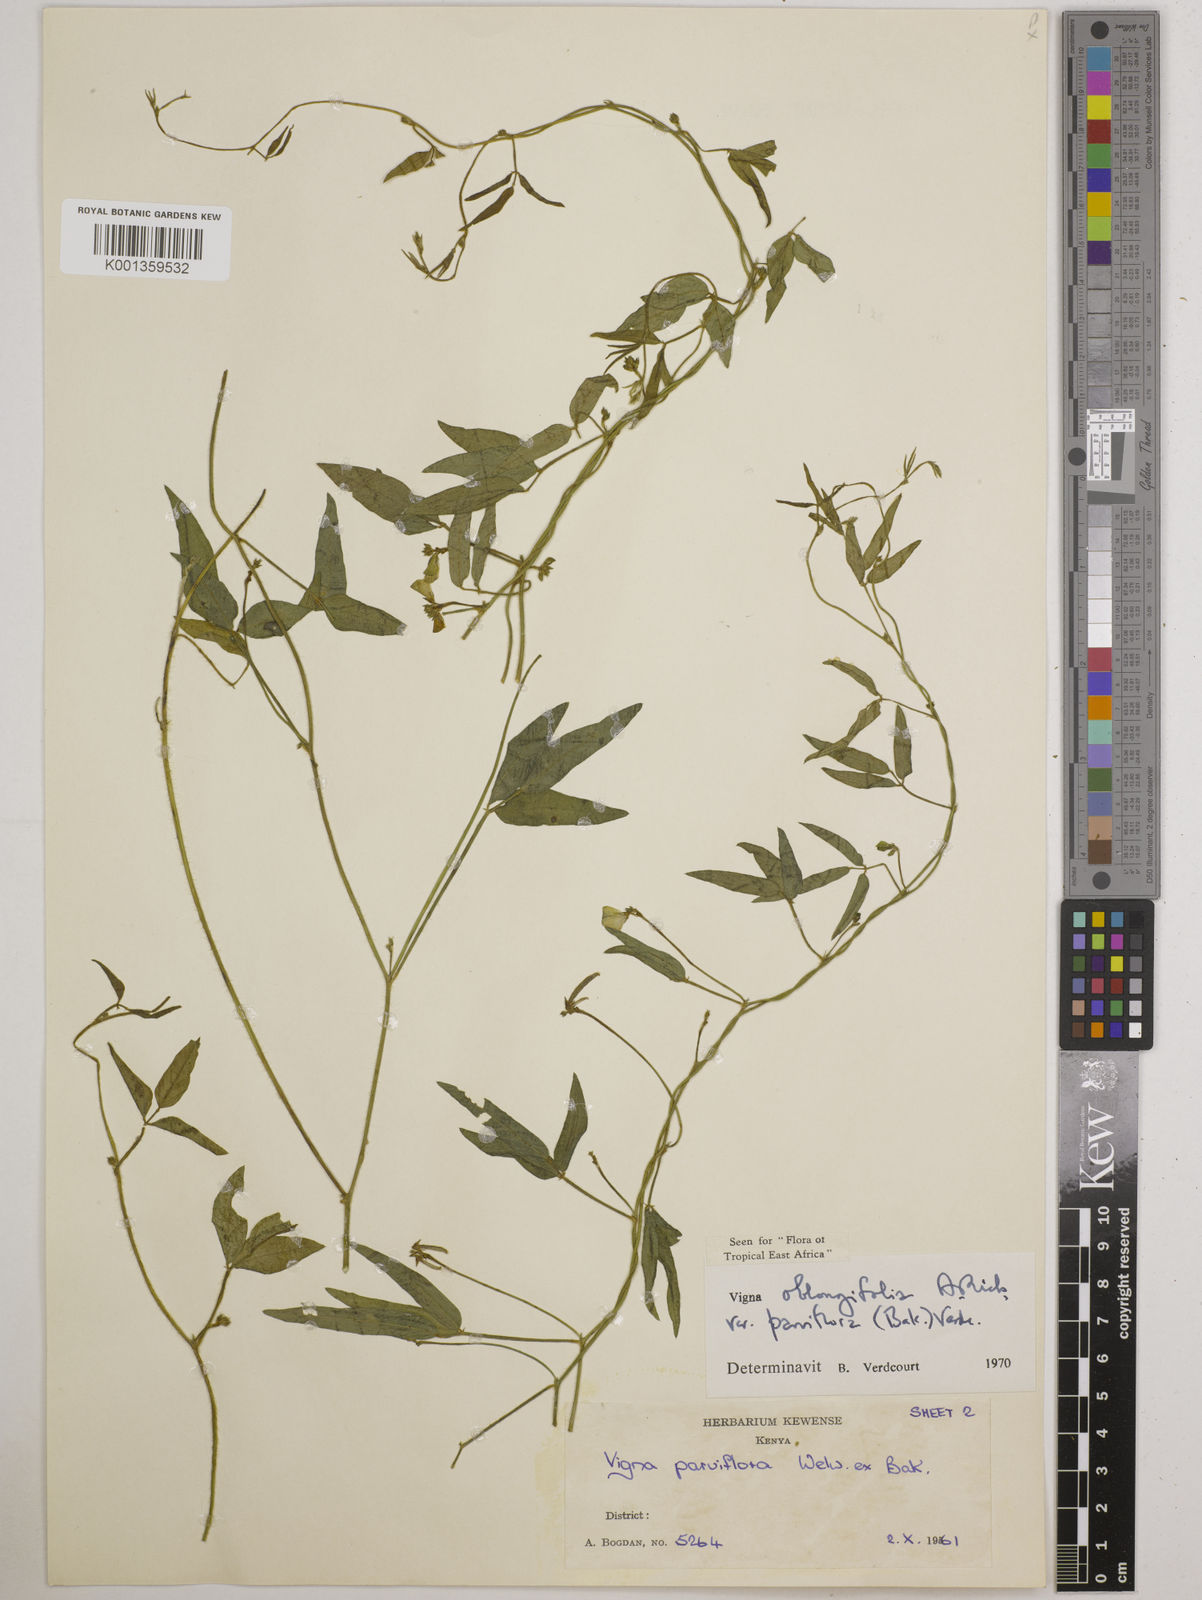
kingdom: Plantae
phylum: Tracheophyta
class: Magnoliopsida
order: Fabales
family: Fabaceae
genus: Vigna
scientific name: Vigna
